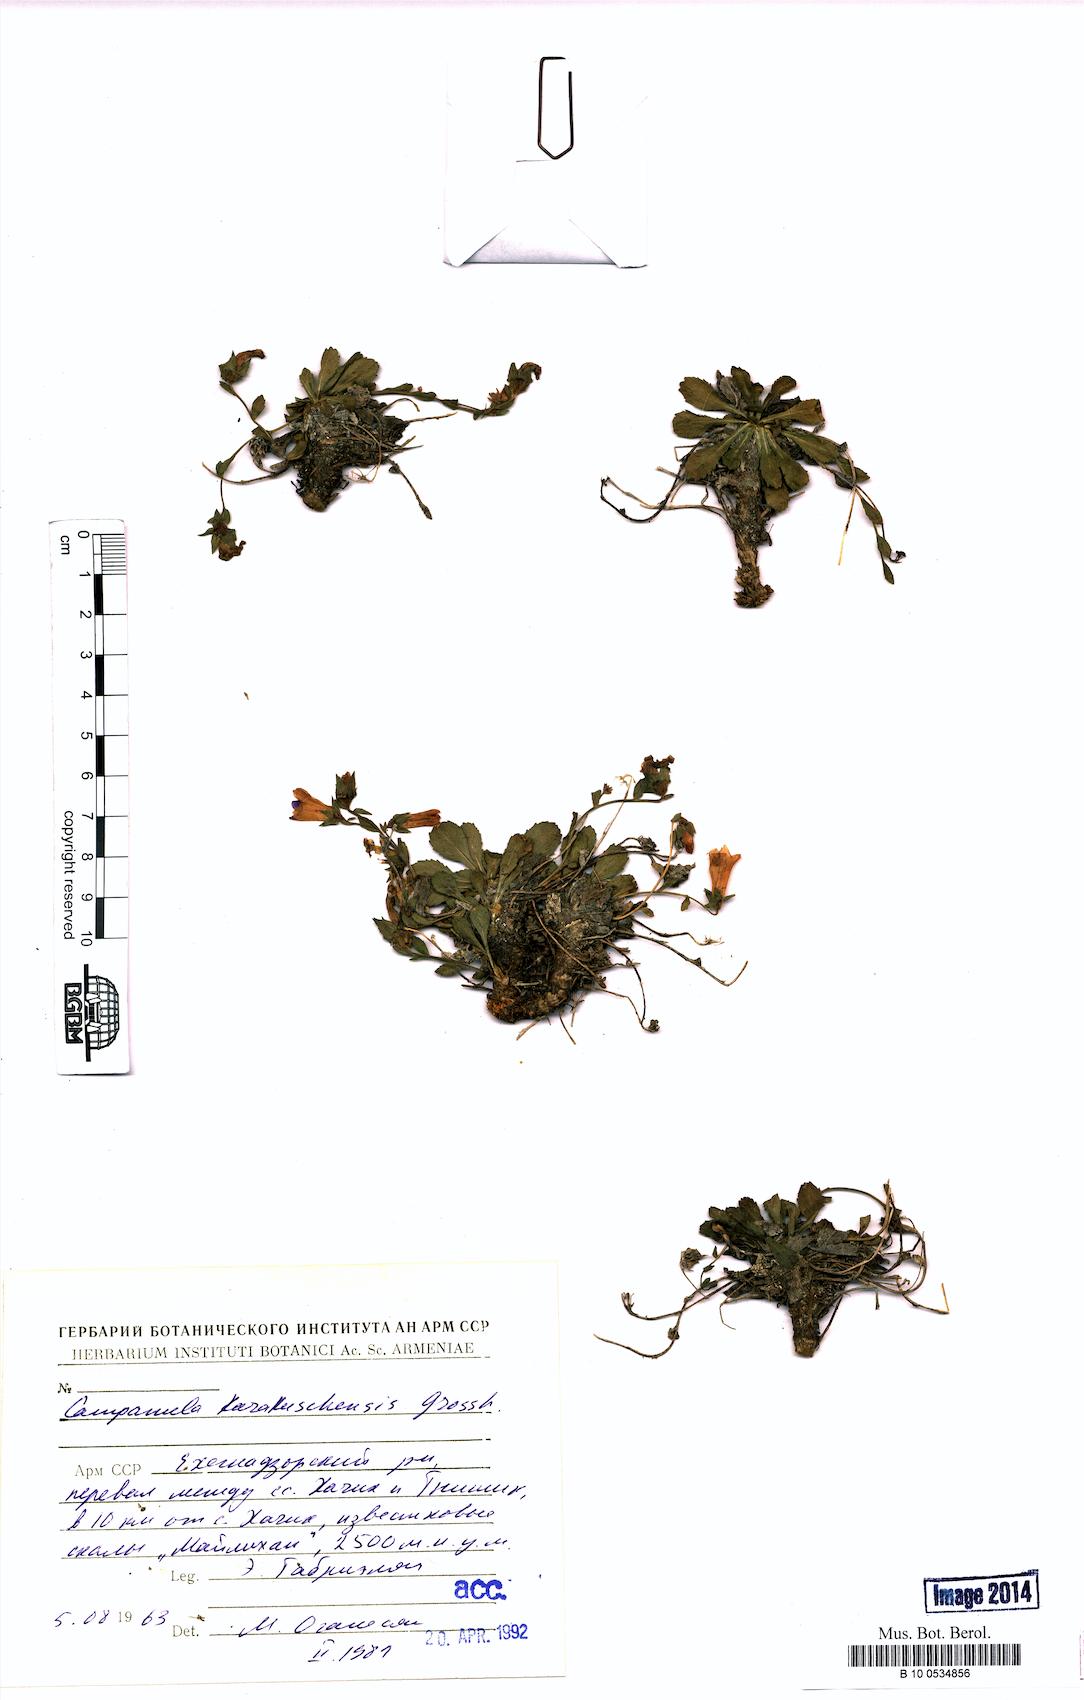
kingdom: Plantae
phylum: Tracheophyta
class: Magnoliopsida
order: Asterales
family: Campanulaceae
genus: Campanula
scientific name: Campanula karakuschensis
